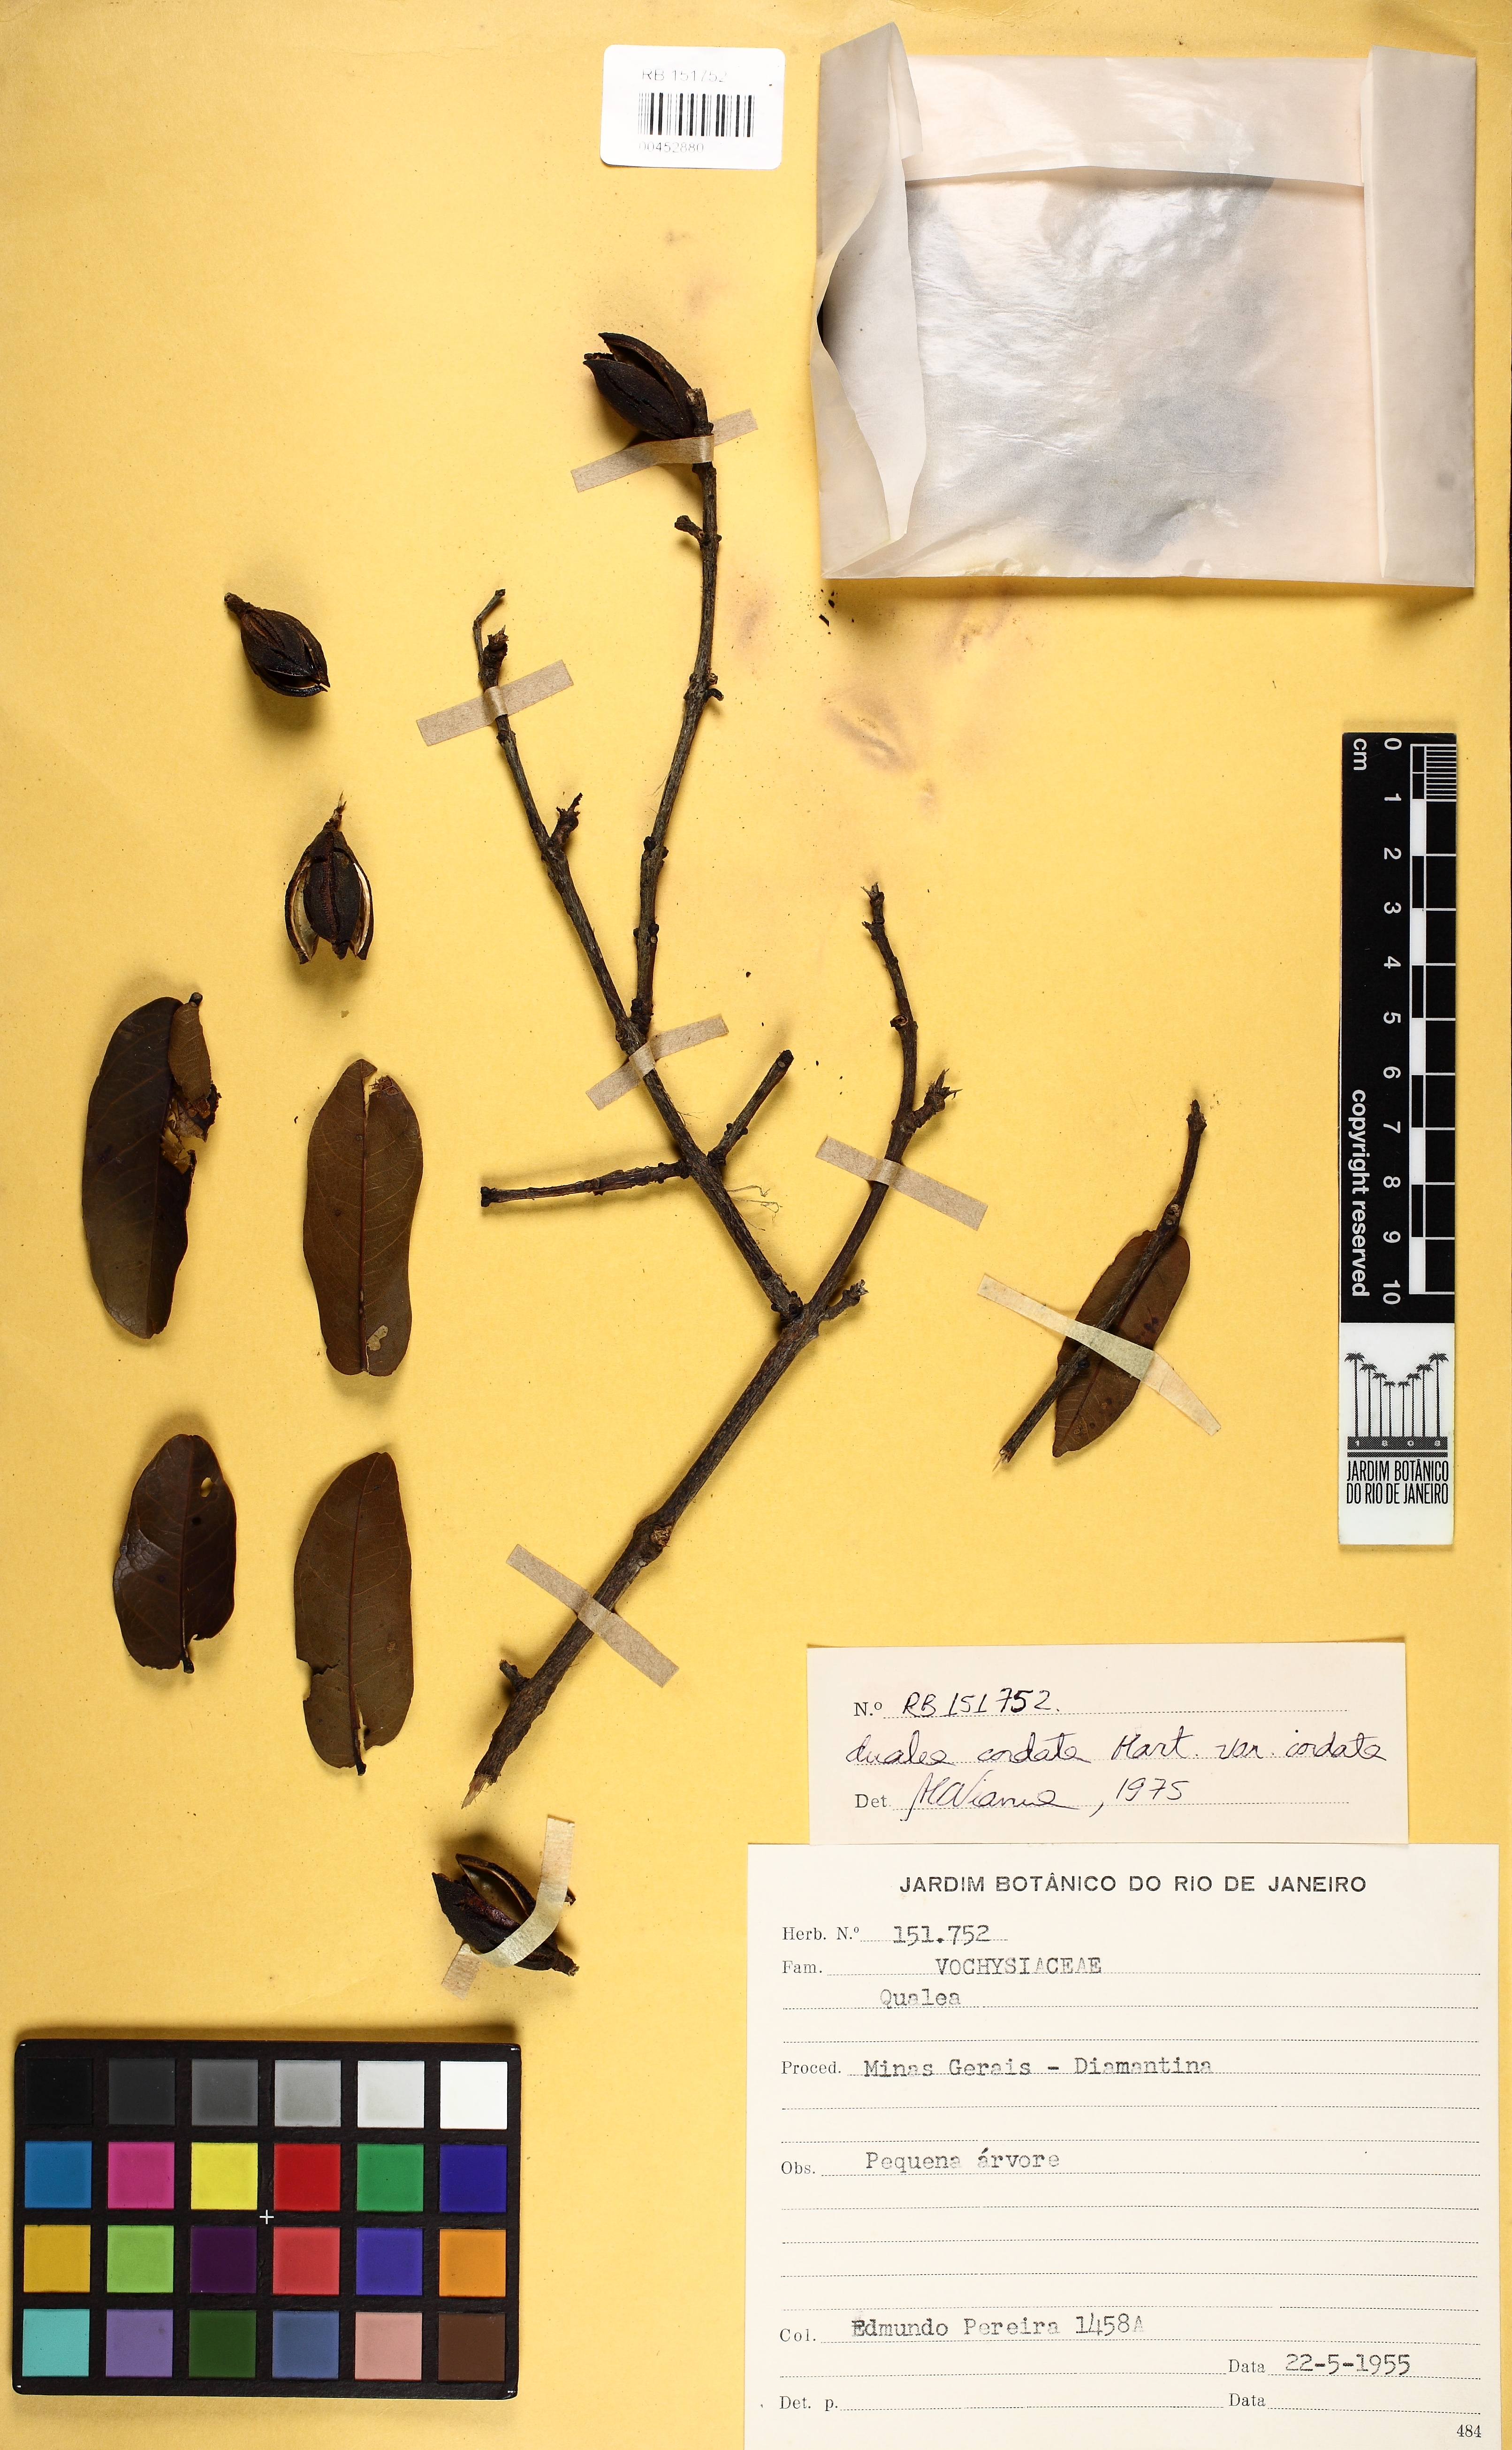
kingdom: Plantae
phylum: Tracheophyta
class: Magnoliopsida
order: Myrtales
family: Vochysiaceae
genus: Qualea
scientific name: Qualea cordata
